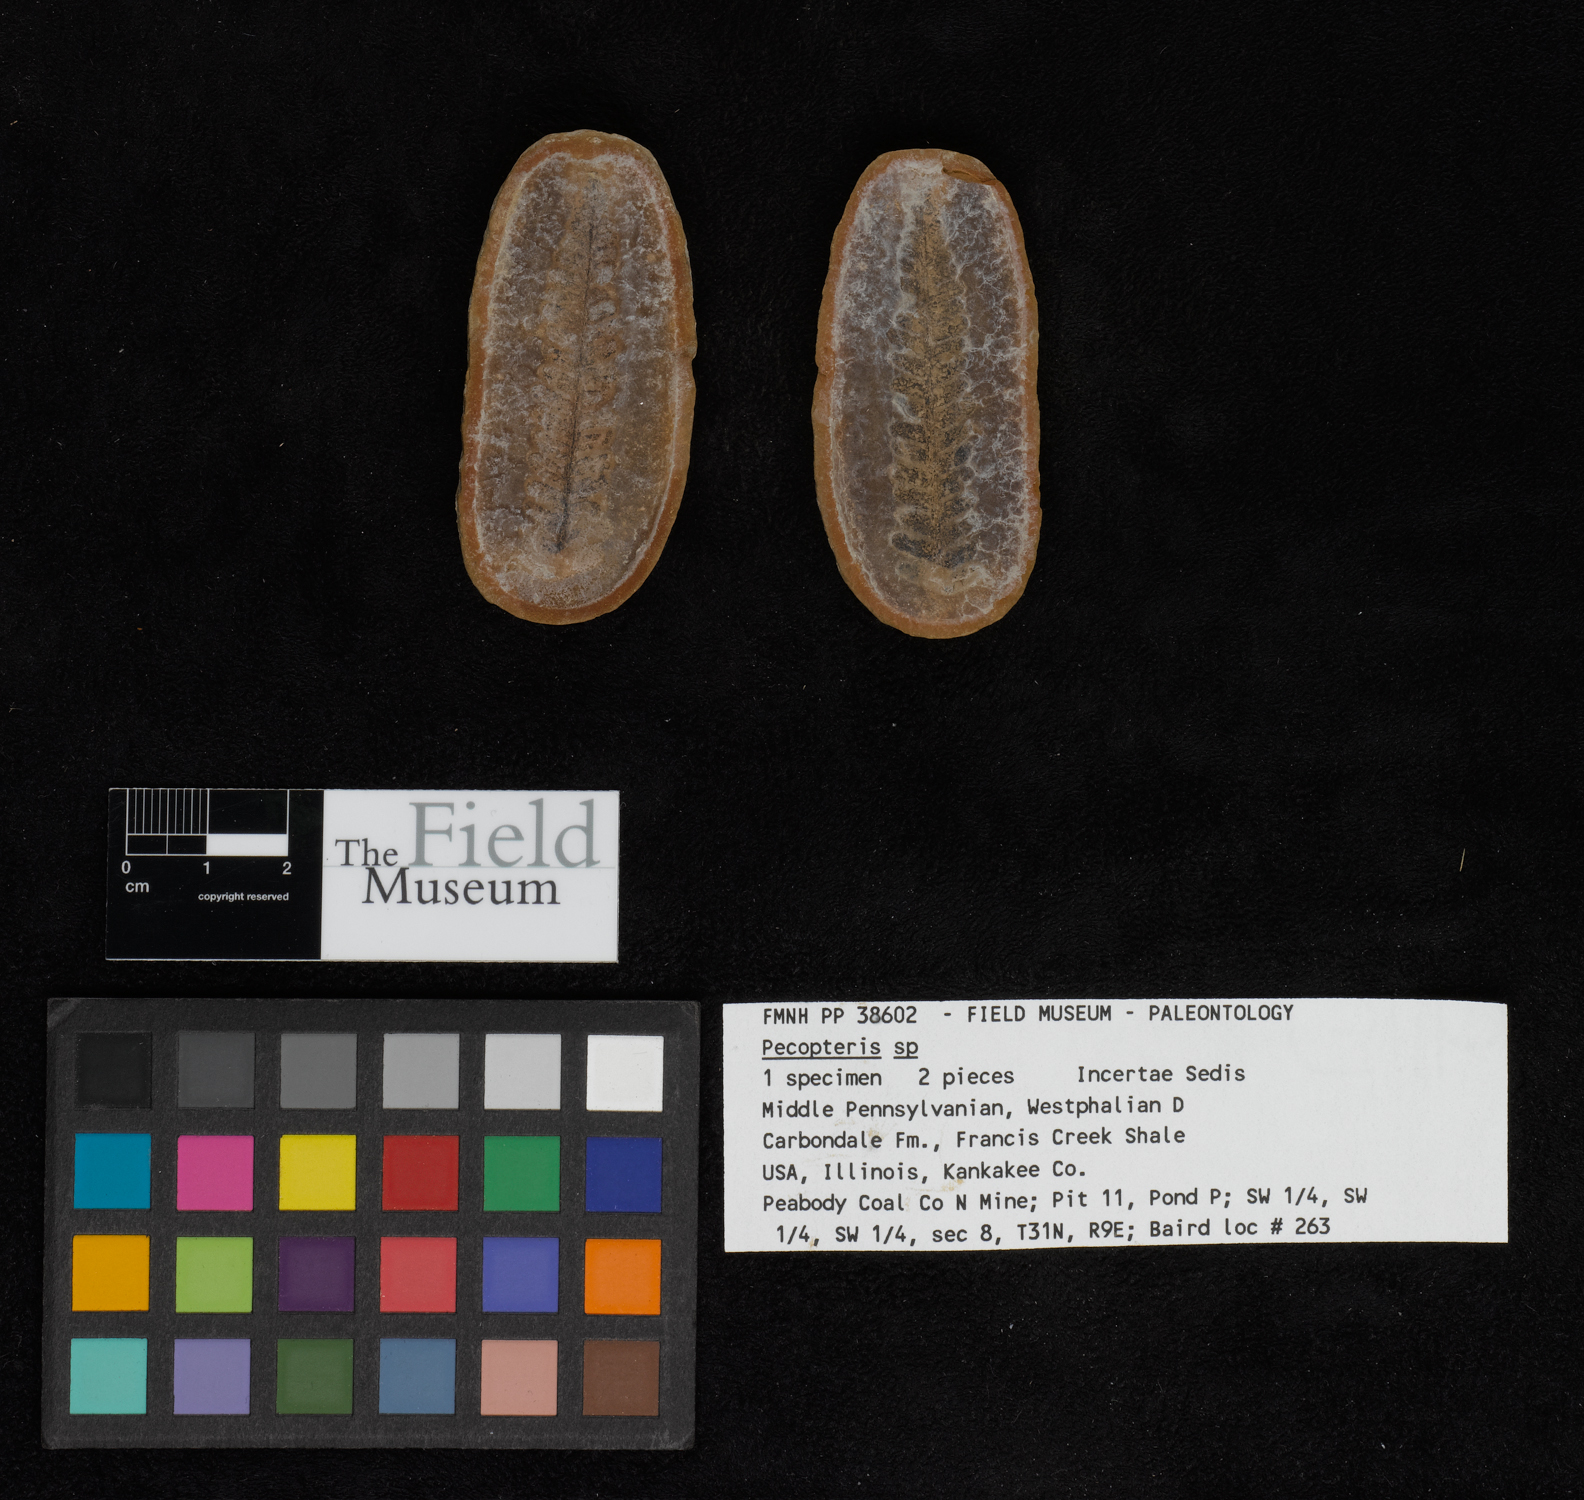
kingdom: Plantae
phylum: Tracheophyta
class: Polypodiopsida
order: Marattiales
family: Asterothecaceae
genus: Pecopteris
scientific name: Pecopteris
